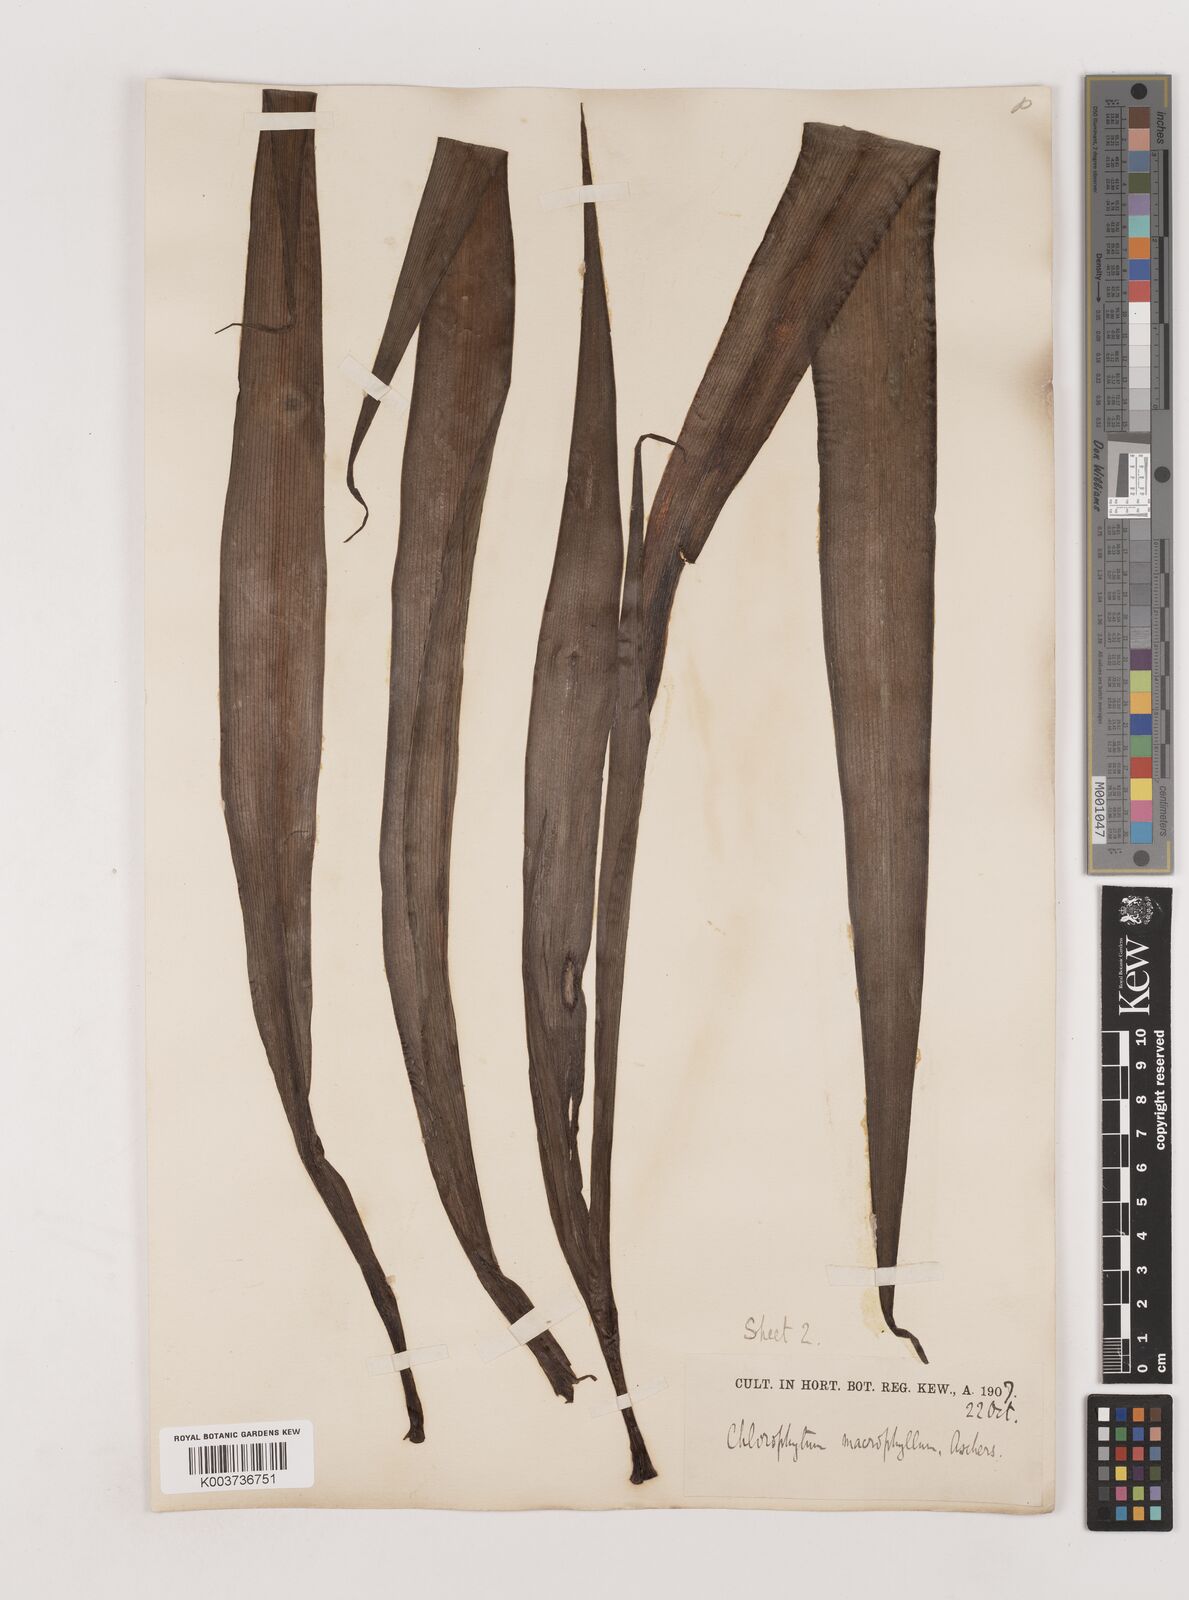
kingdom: Plantae
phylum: Tracheophyta
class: Liliopsida
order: Asparagales
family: Asparagaceae
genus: Chlorophytum
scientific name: Chlorophytum macrophyllum
